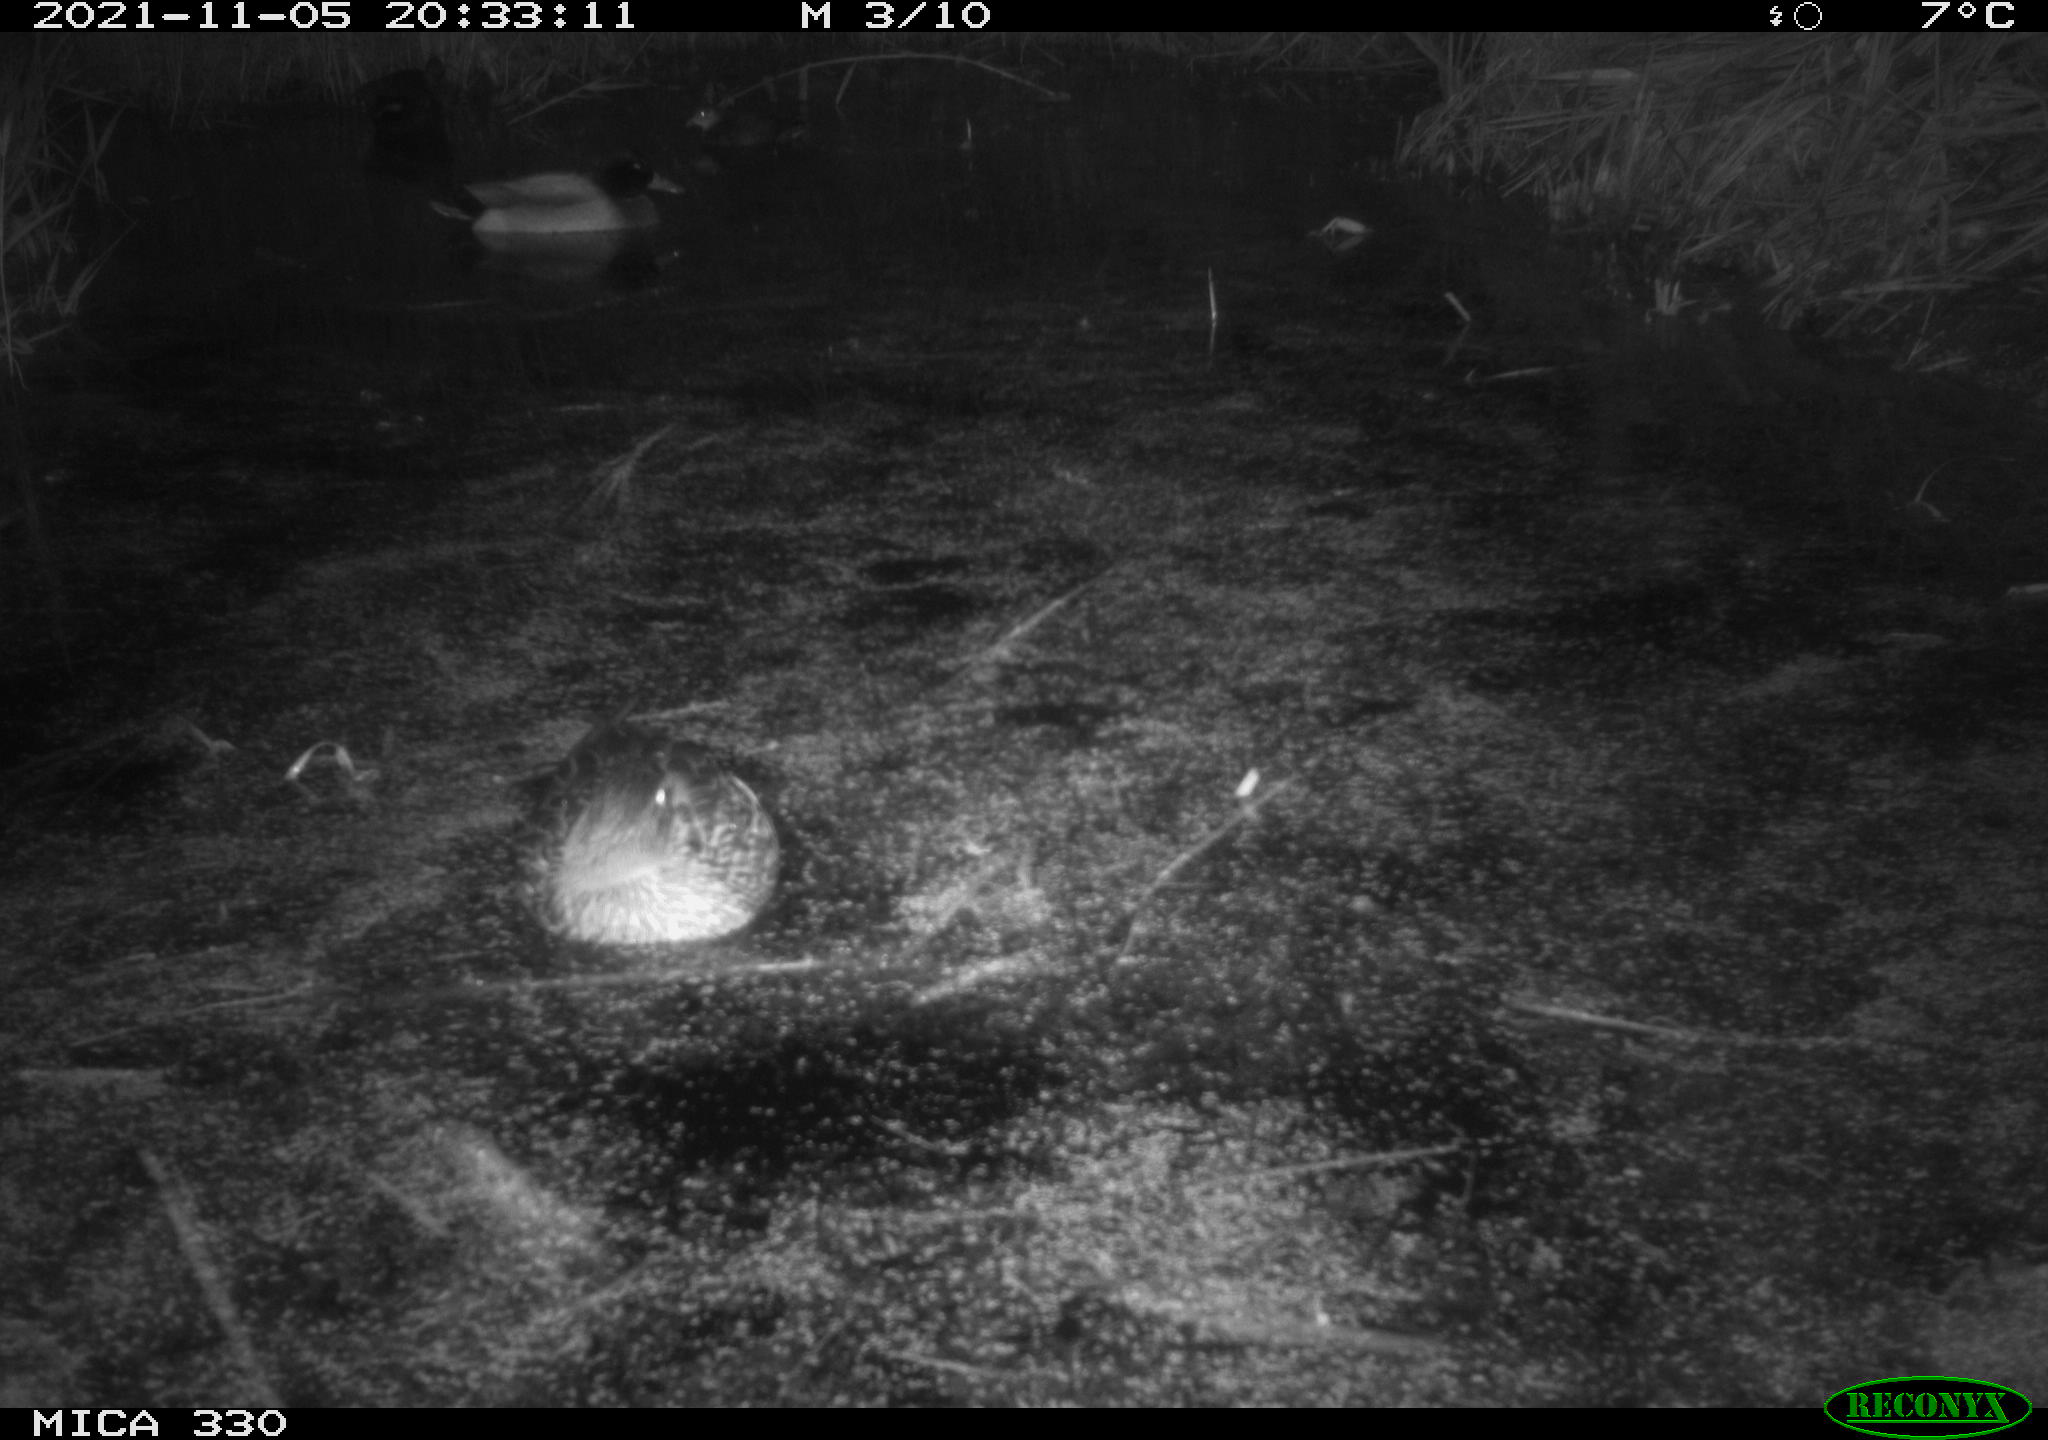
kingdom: Animalia
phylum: Chordata
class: Aves
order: Anseriformes
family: Anatidae
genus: Anas
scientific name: Anas platyrhynchos
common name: Mallard
